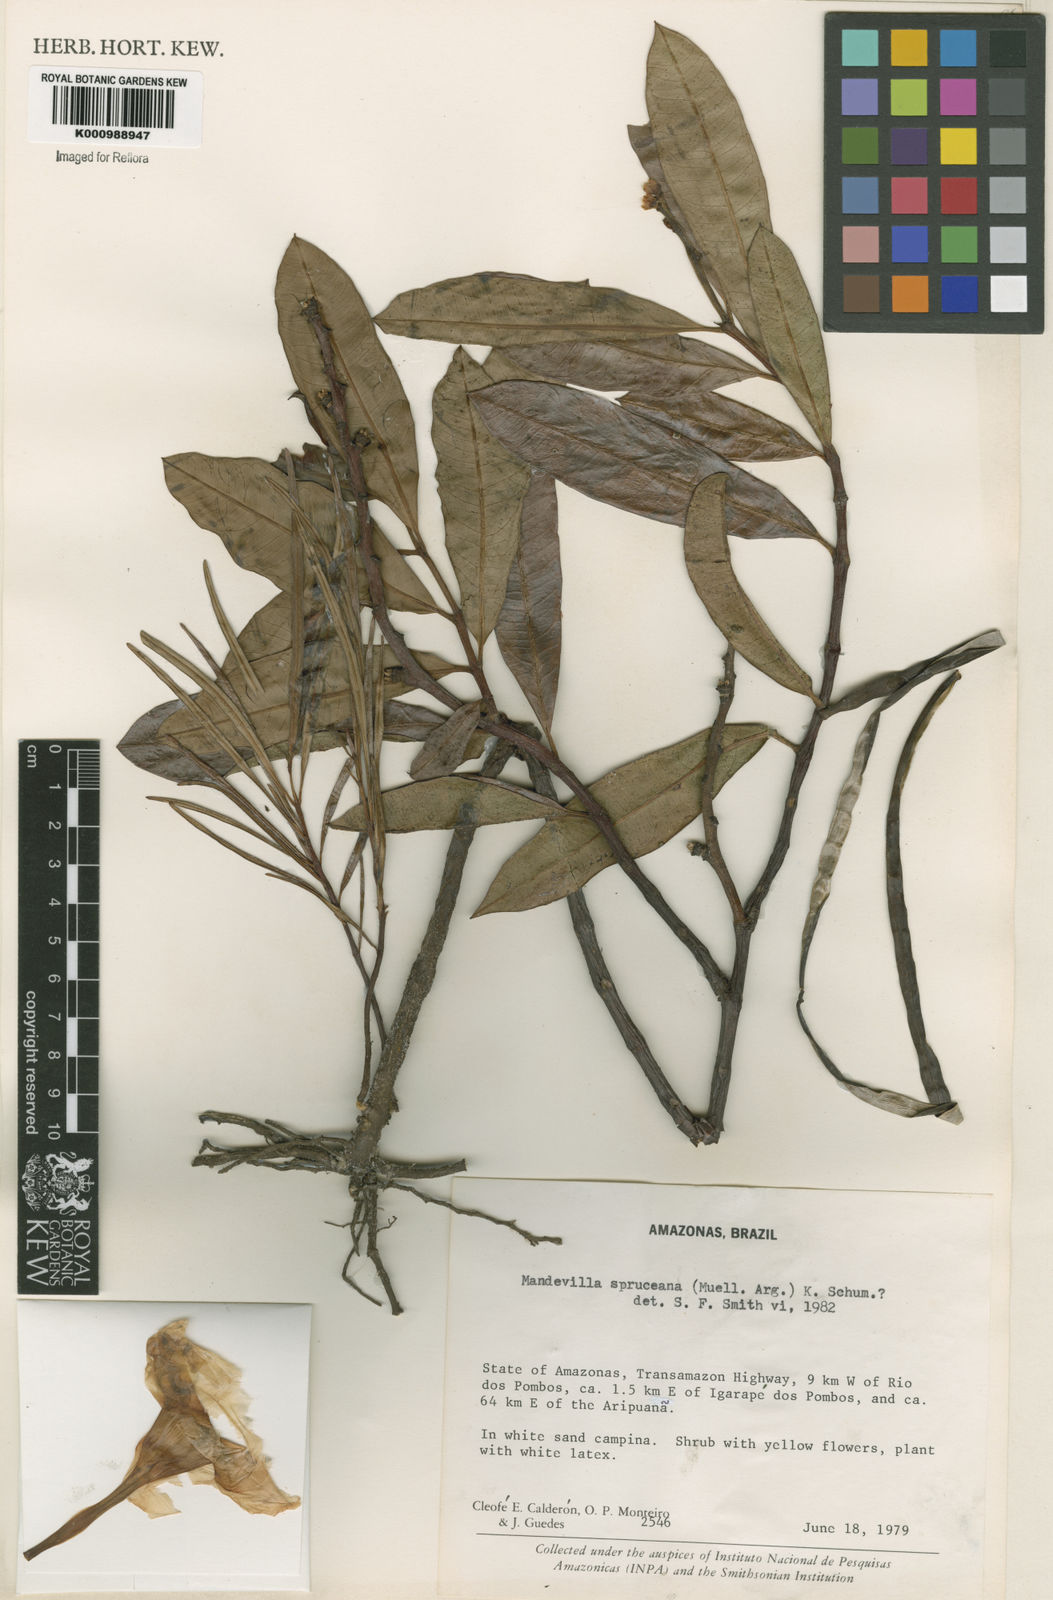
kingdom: Plantae
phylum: Tracheophyta
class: Magnoliopsida
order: Gentianales
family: Apocynaceae
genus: Mandevilla
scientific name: Mandevilla
